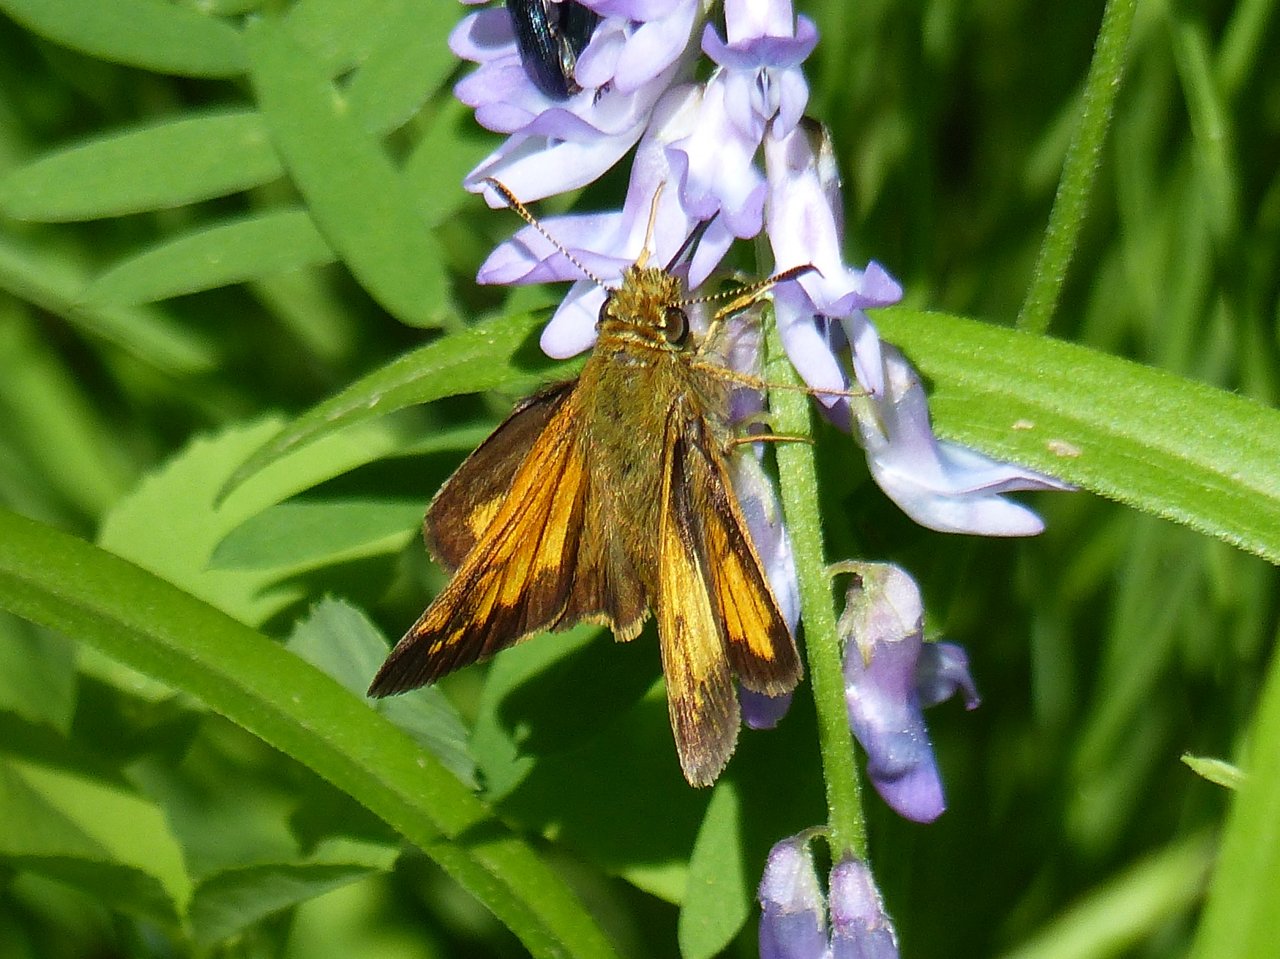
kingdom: Animalia
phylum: Arthropoda
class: Insecta
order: Lepidoptera
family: Hesperiidae
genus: Lon
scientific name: Lon hobomok
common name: Hobomok Skipper
